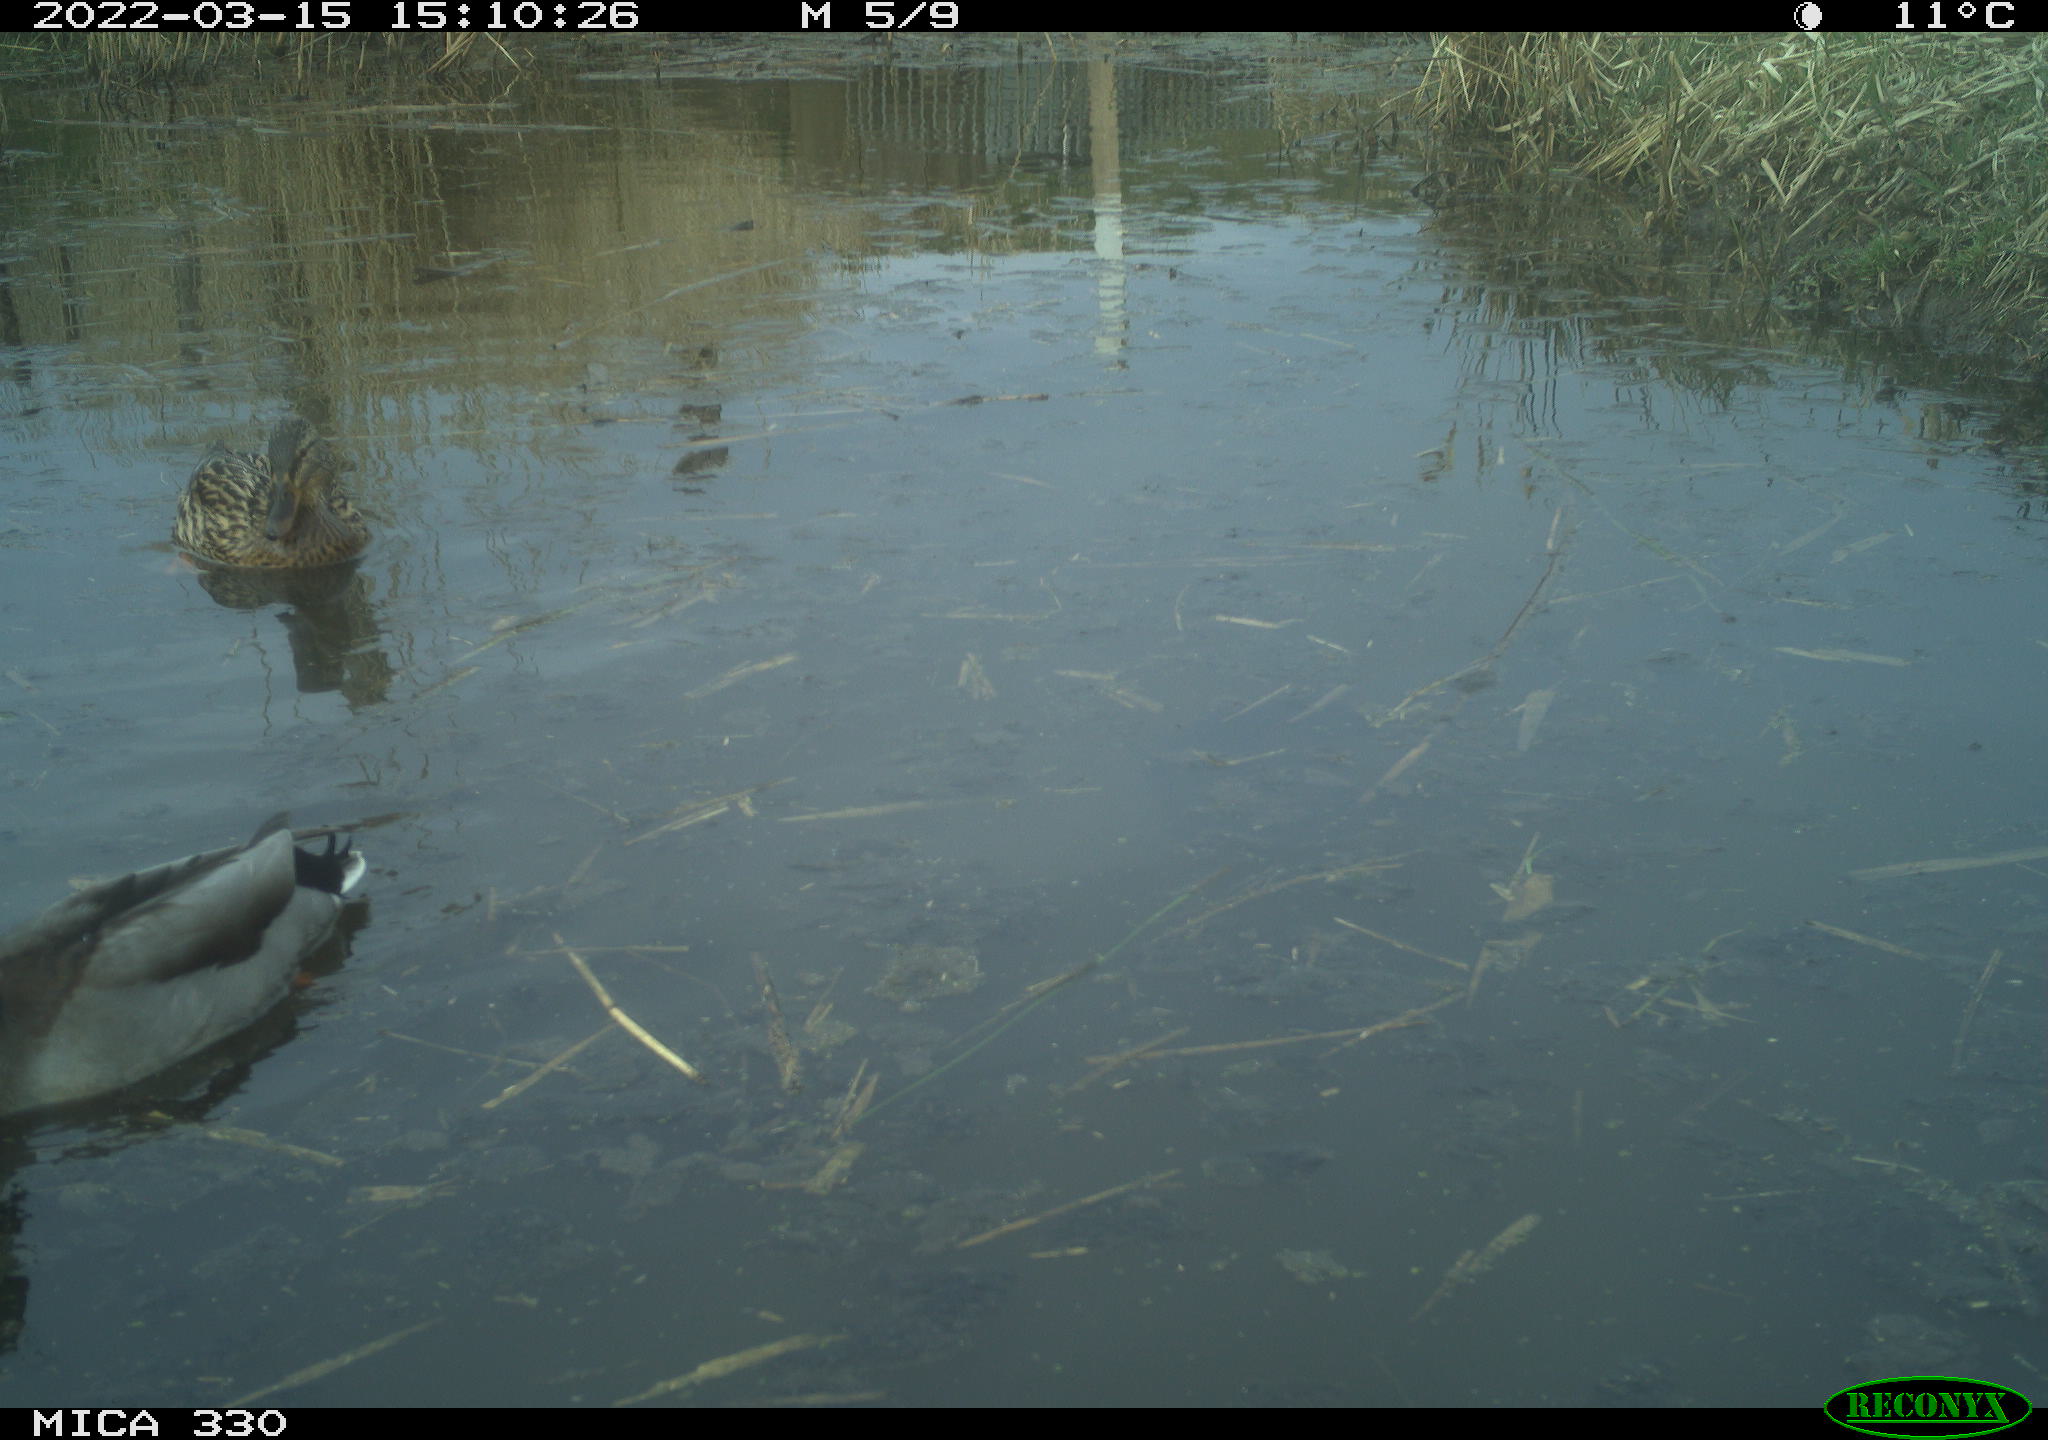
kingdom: Animalia
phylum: Chordata
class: Aves
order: Anseriformes
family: Anatidae
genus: Anas
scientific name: Anas platyrhynchos
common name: Mallard
